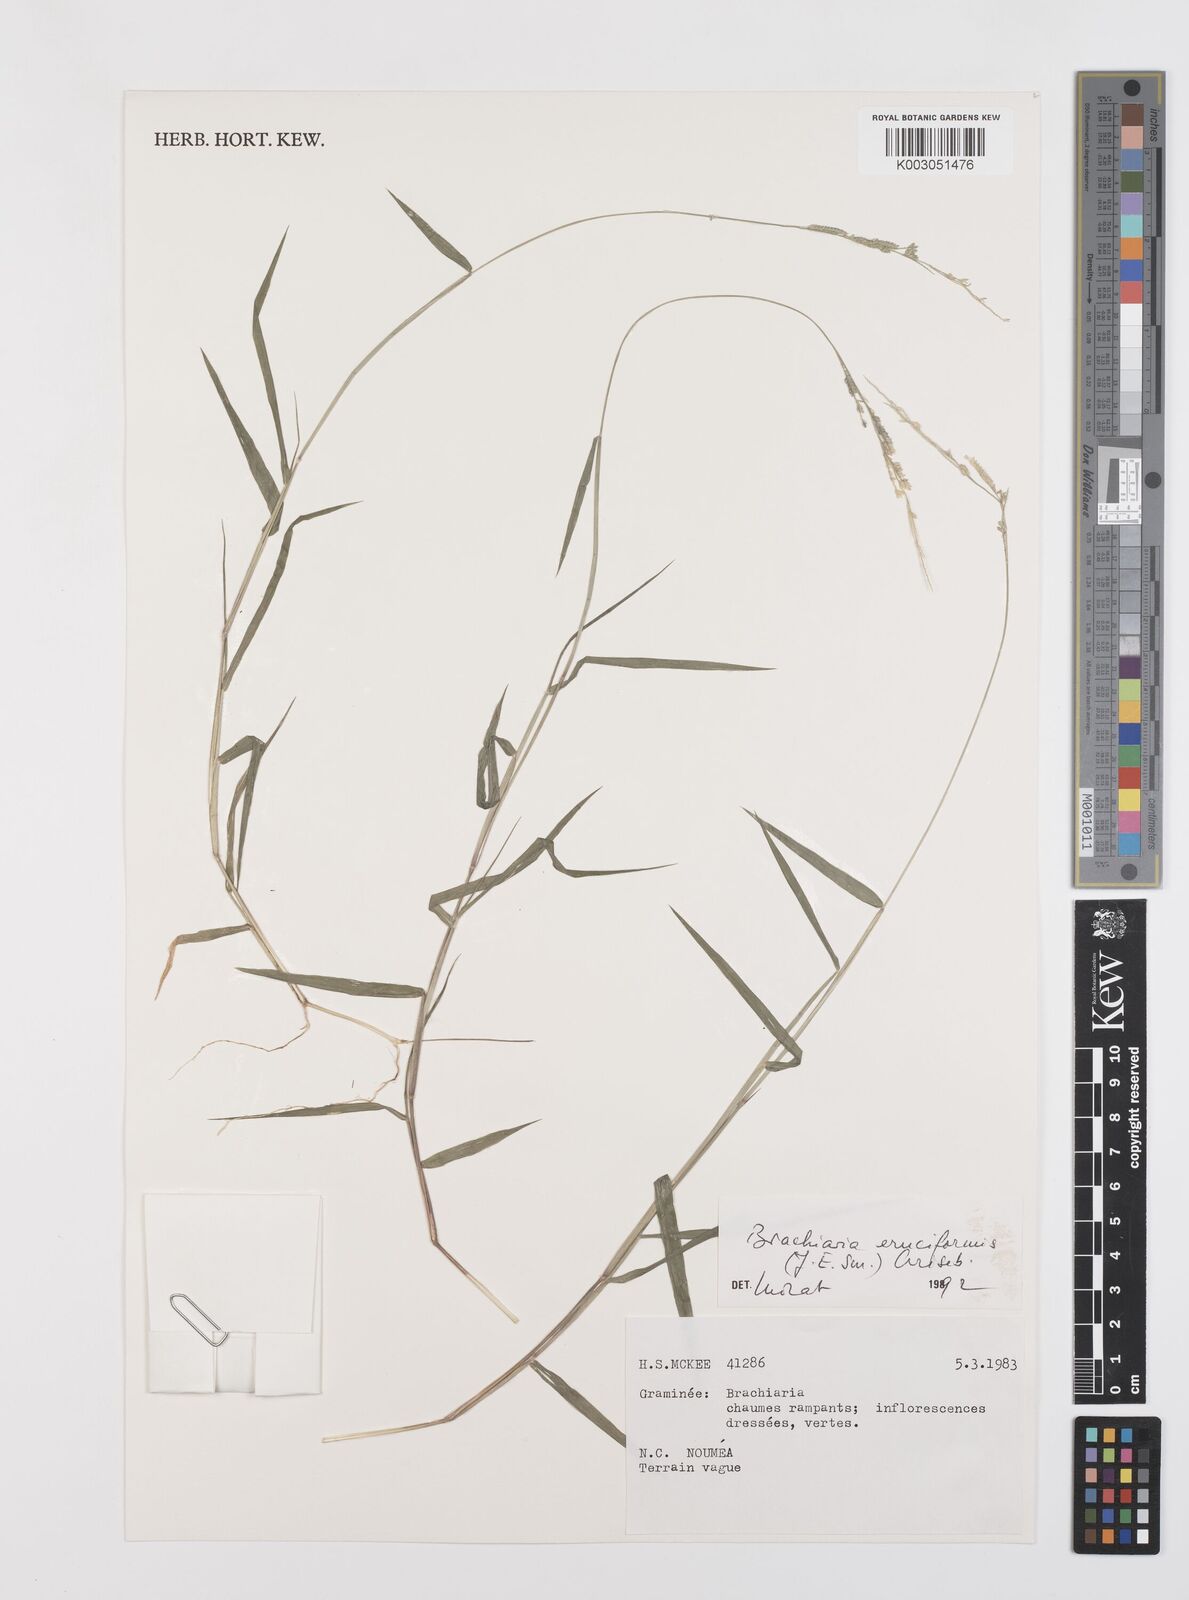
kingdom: Plantae
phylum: Tracheophyta
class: Liliopsida
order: Poales
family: Poaceae
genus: Moorochloa
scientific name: Moorochloa eruciformis
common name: Sweet signalgrass
